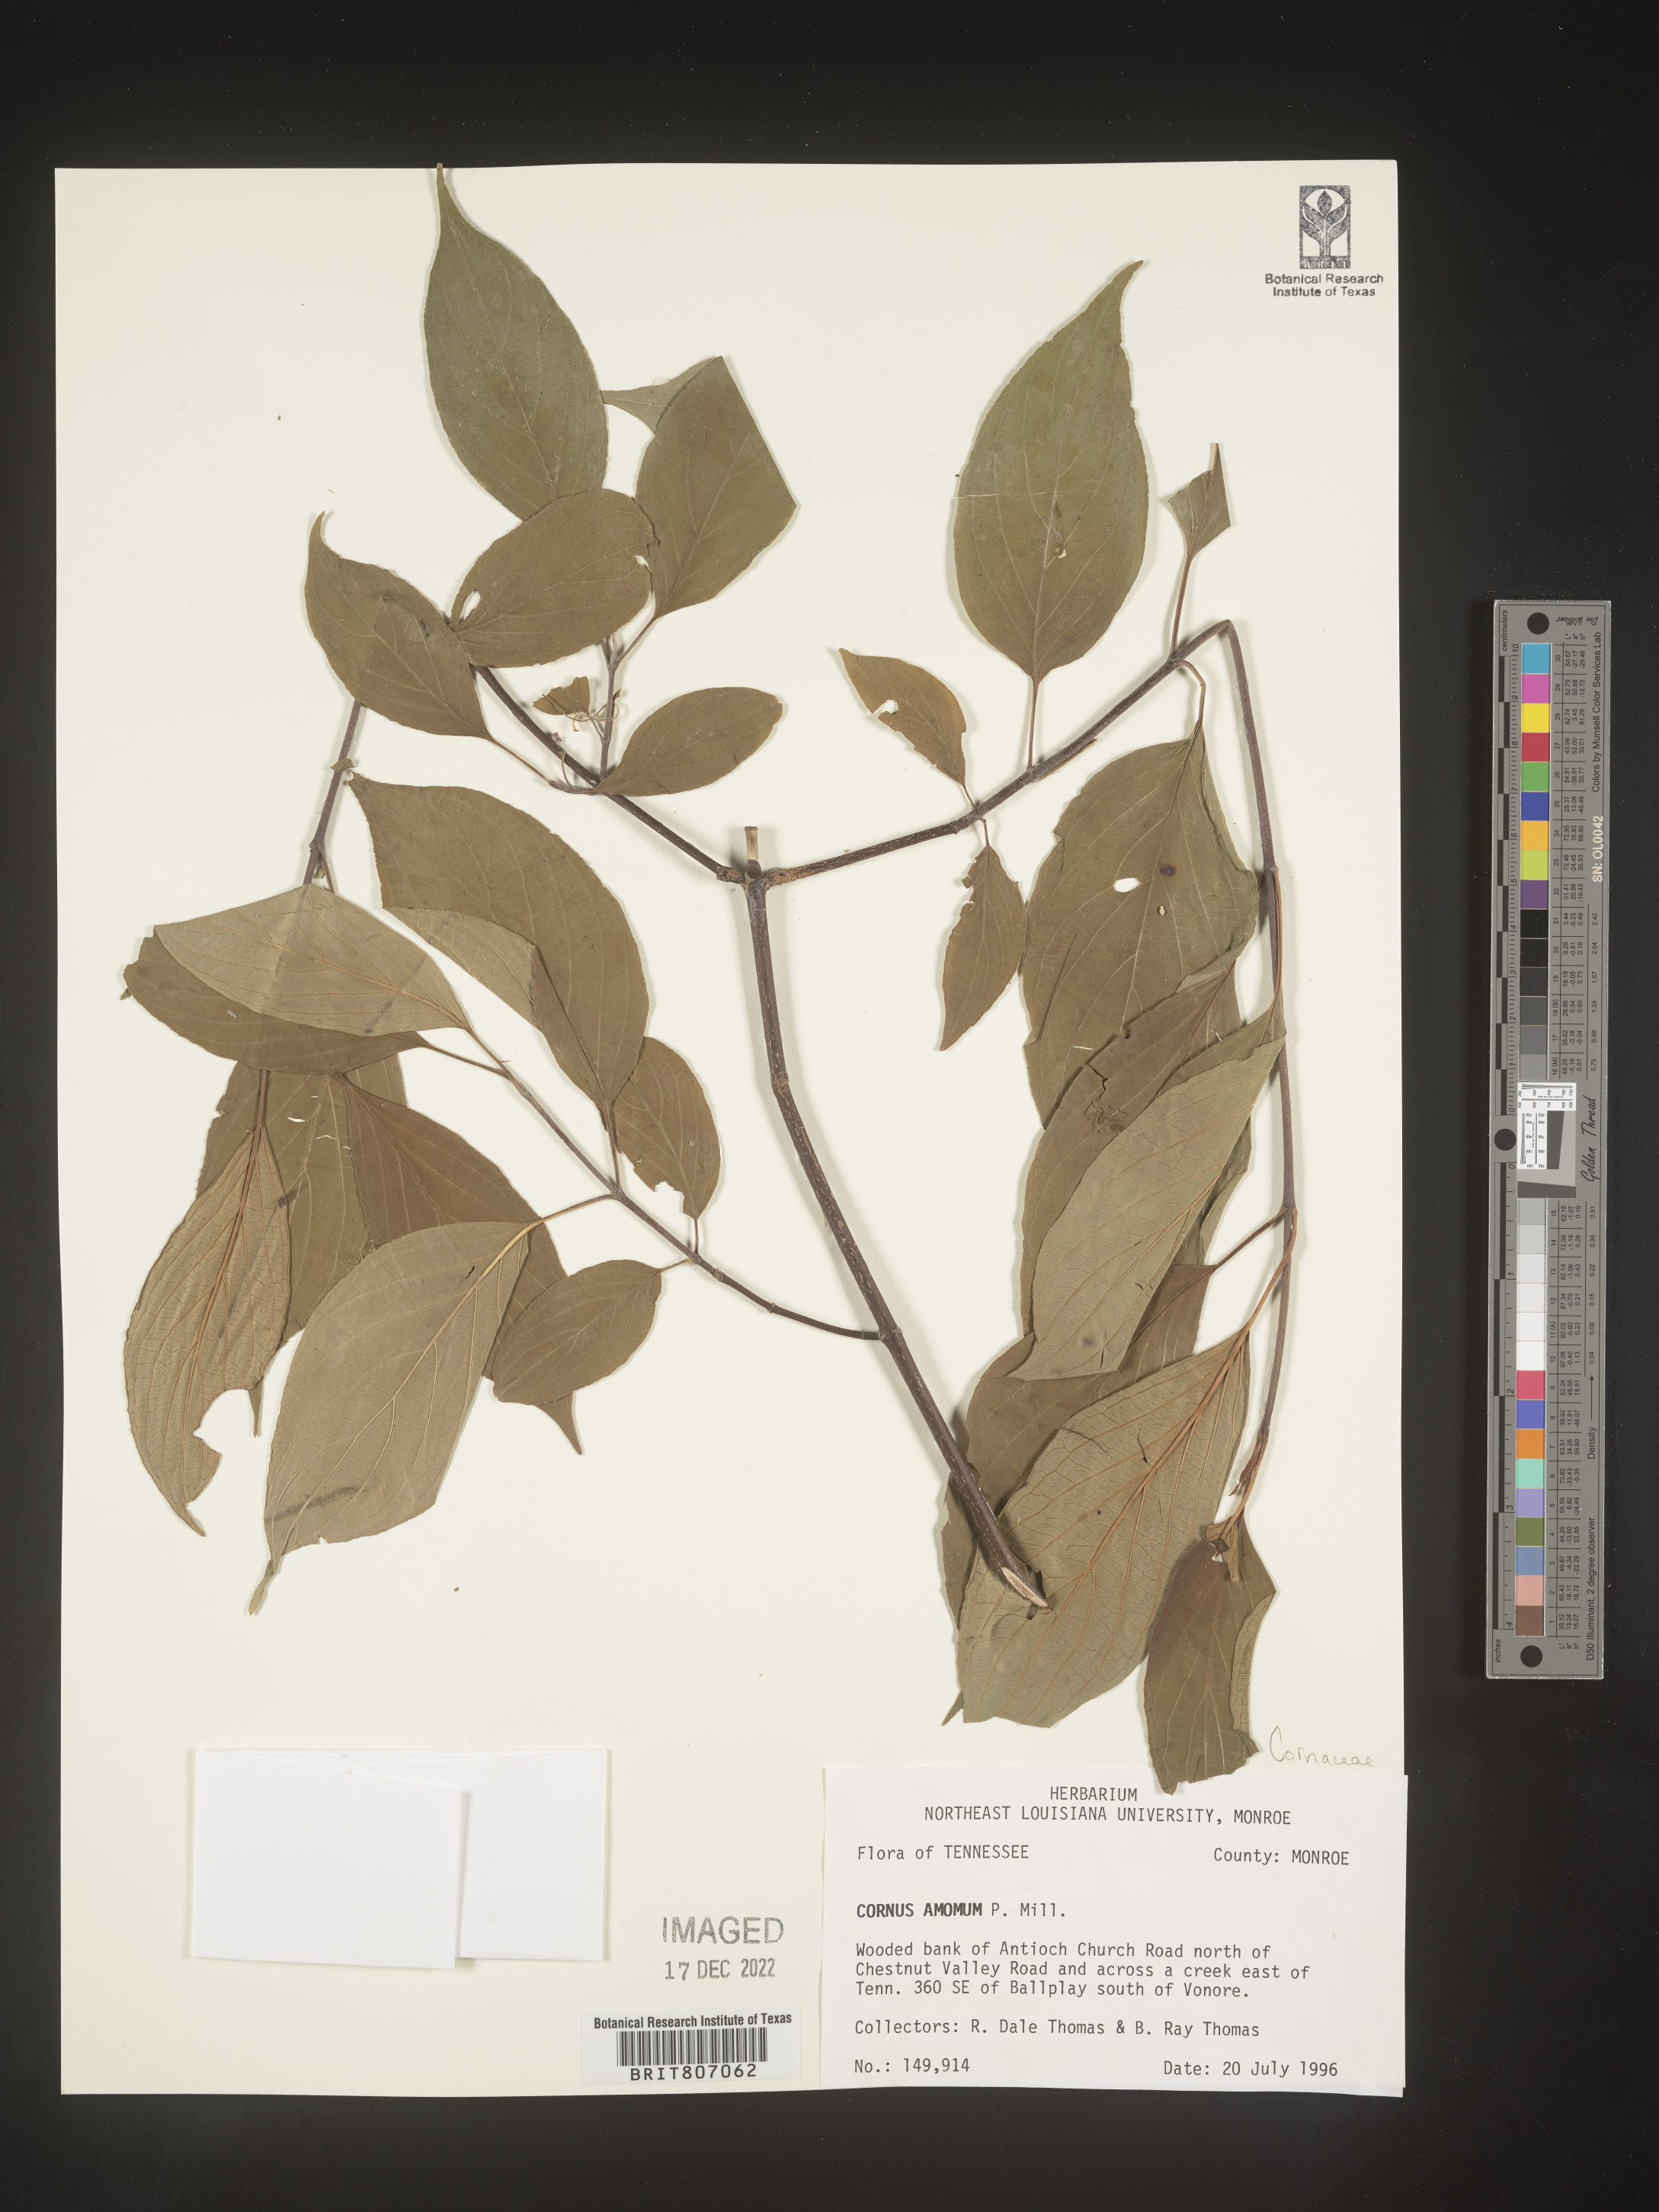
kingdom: Plantae
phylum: Tracheophyta
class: Magnoliopsida
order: Cornales
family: Cornaceae
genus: Cornus
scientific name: Cornus amomum
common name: Silky dogwood
